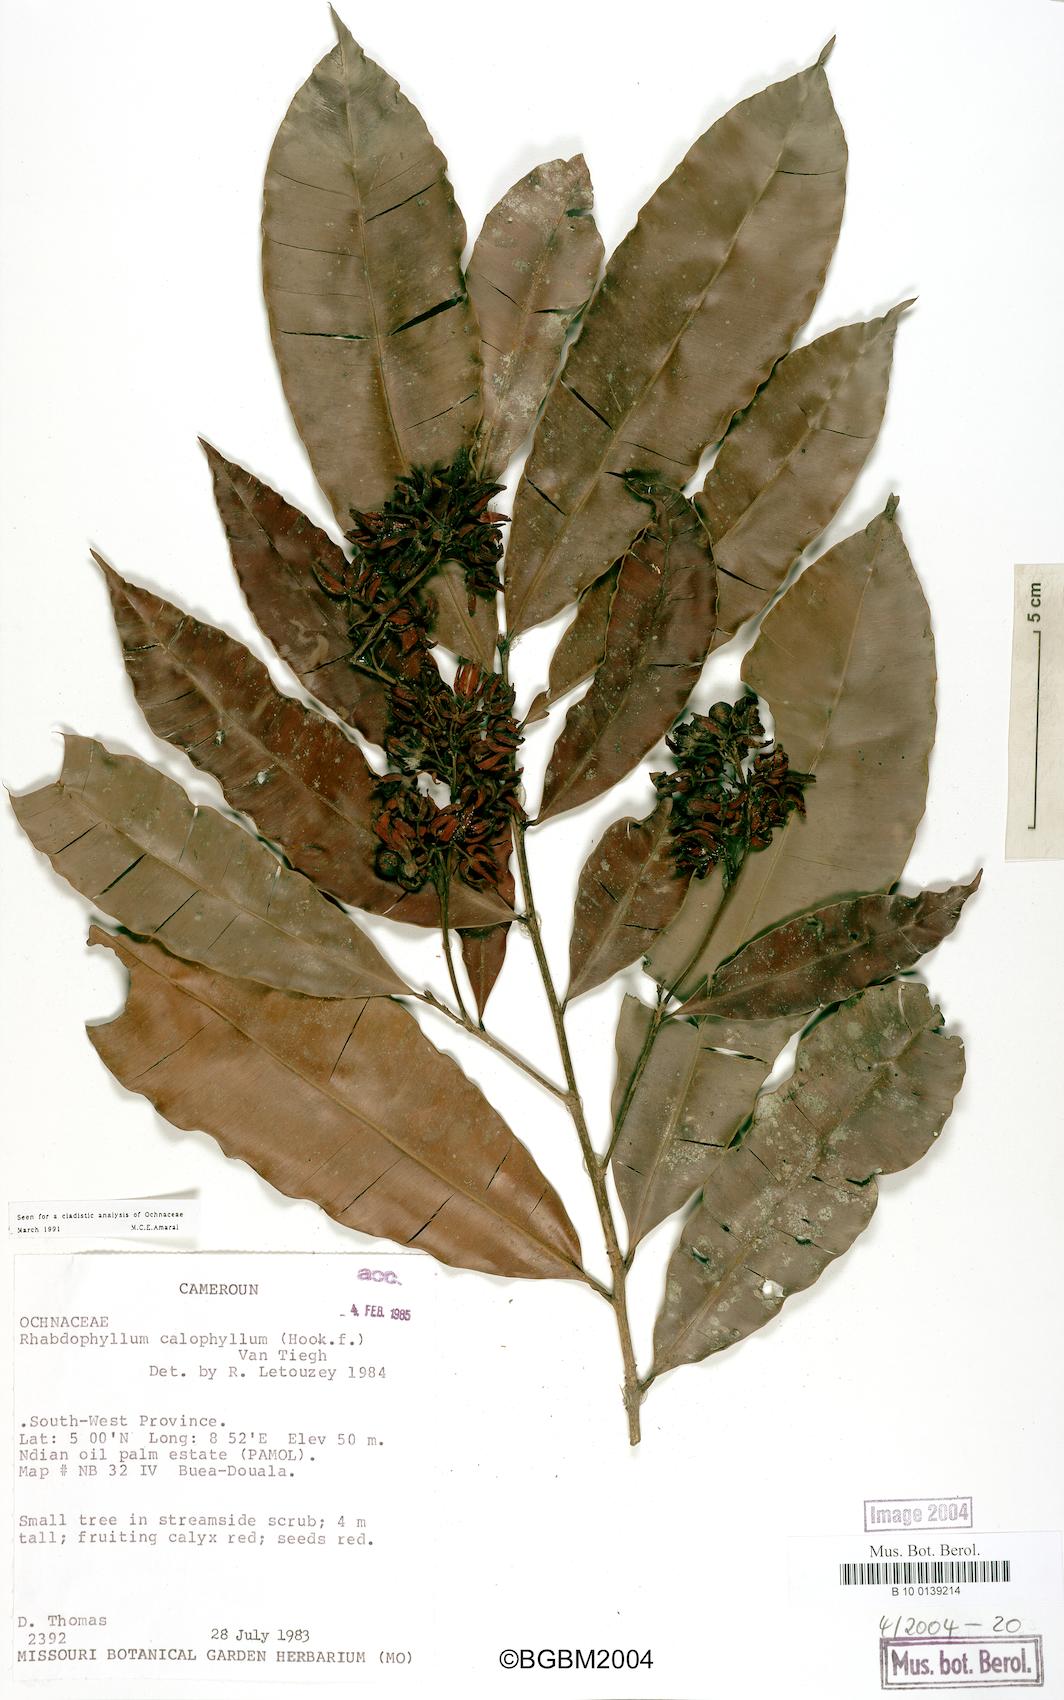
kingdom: Plantae
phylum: Tracheophyta
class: Magnoliopsida
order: Malpighiales
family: Ochnaceae
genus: Rhabdophyllum
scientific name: Rhabdophyllum calophyllum
